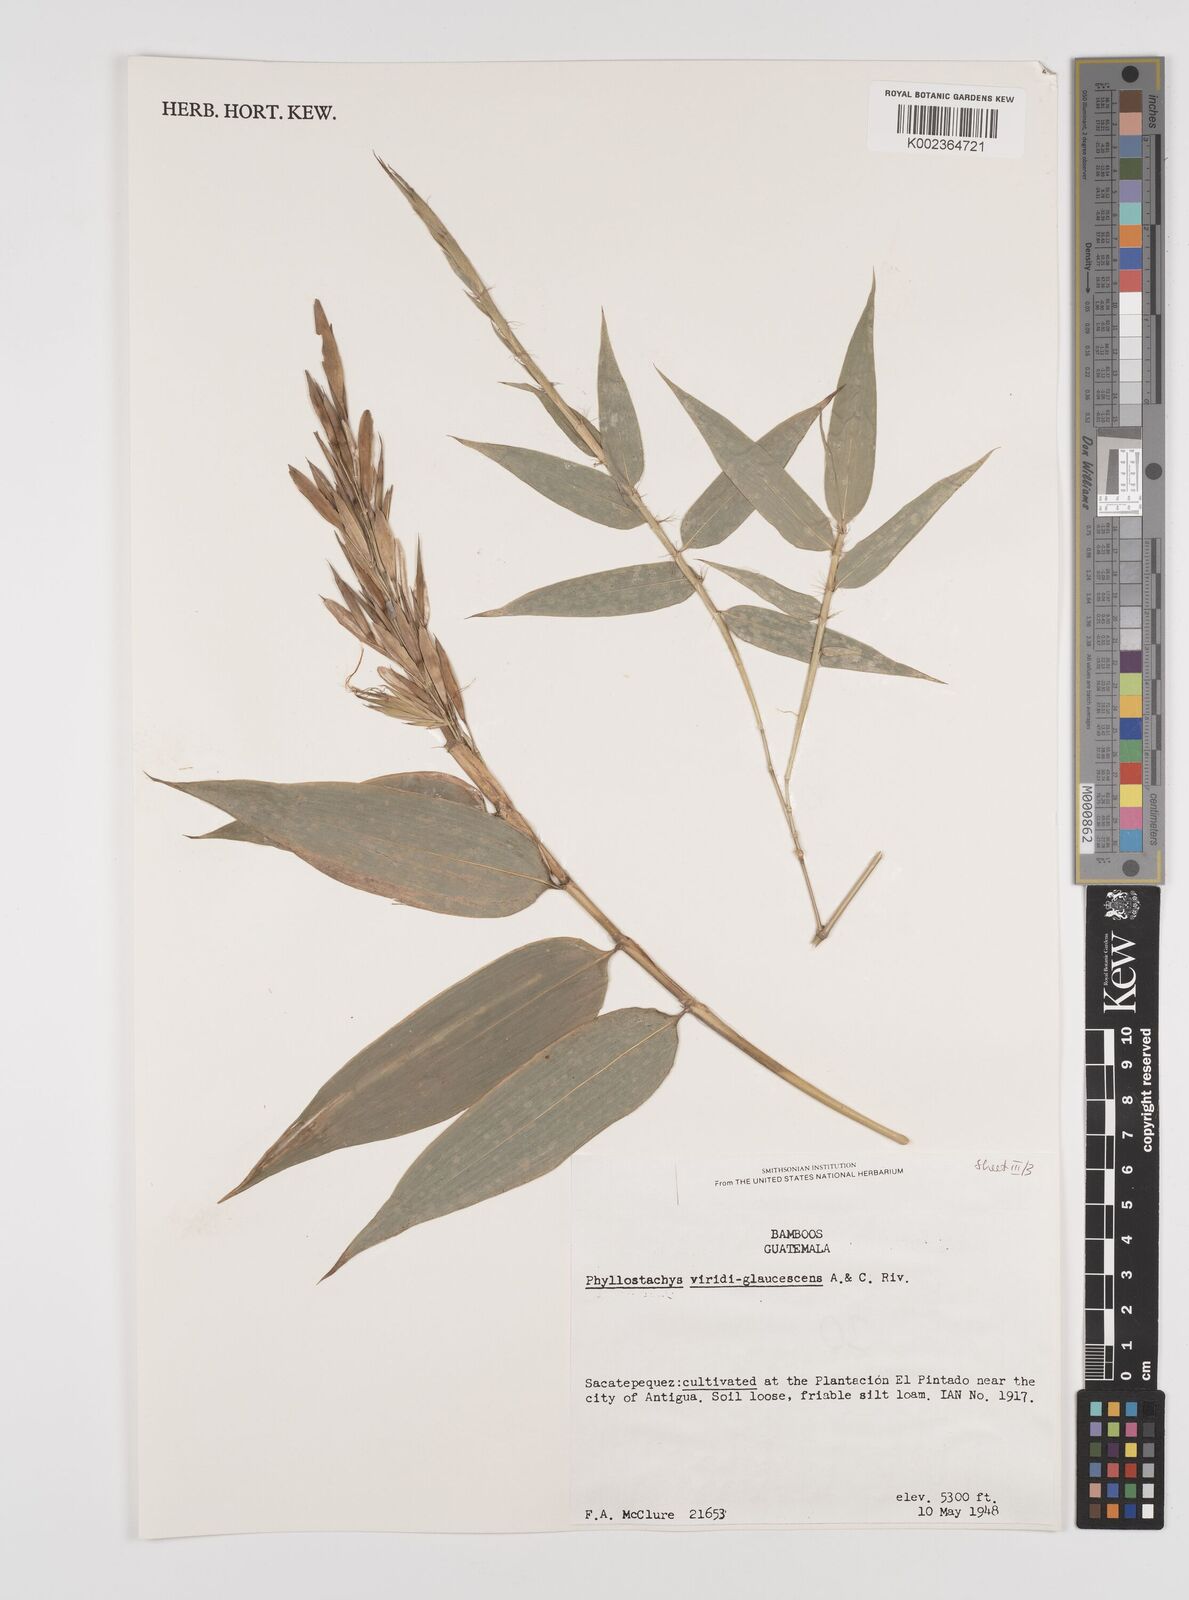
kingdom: Plantae
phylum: Tracheophyta
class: Liliopsida
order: Poales
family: Poaceae
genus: Phyllostachys
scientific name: Phyllostachys viridiglaucescens
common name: Greenwax golden bamboo
